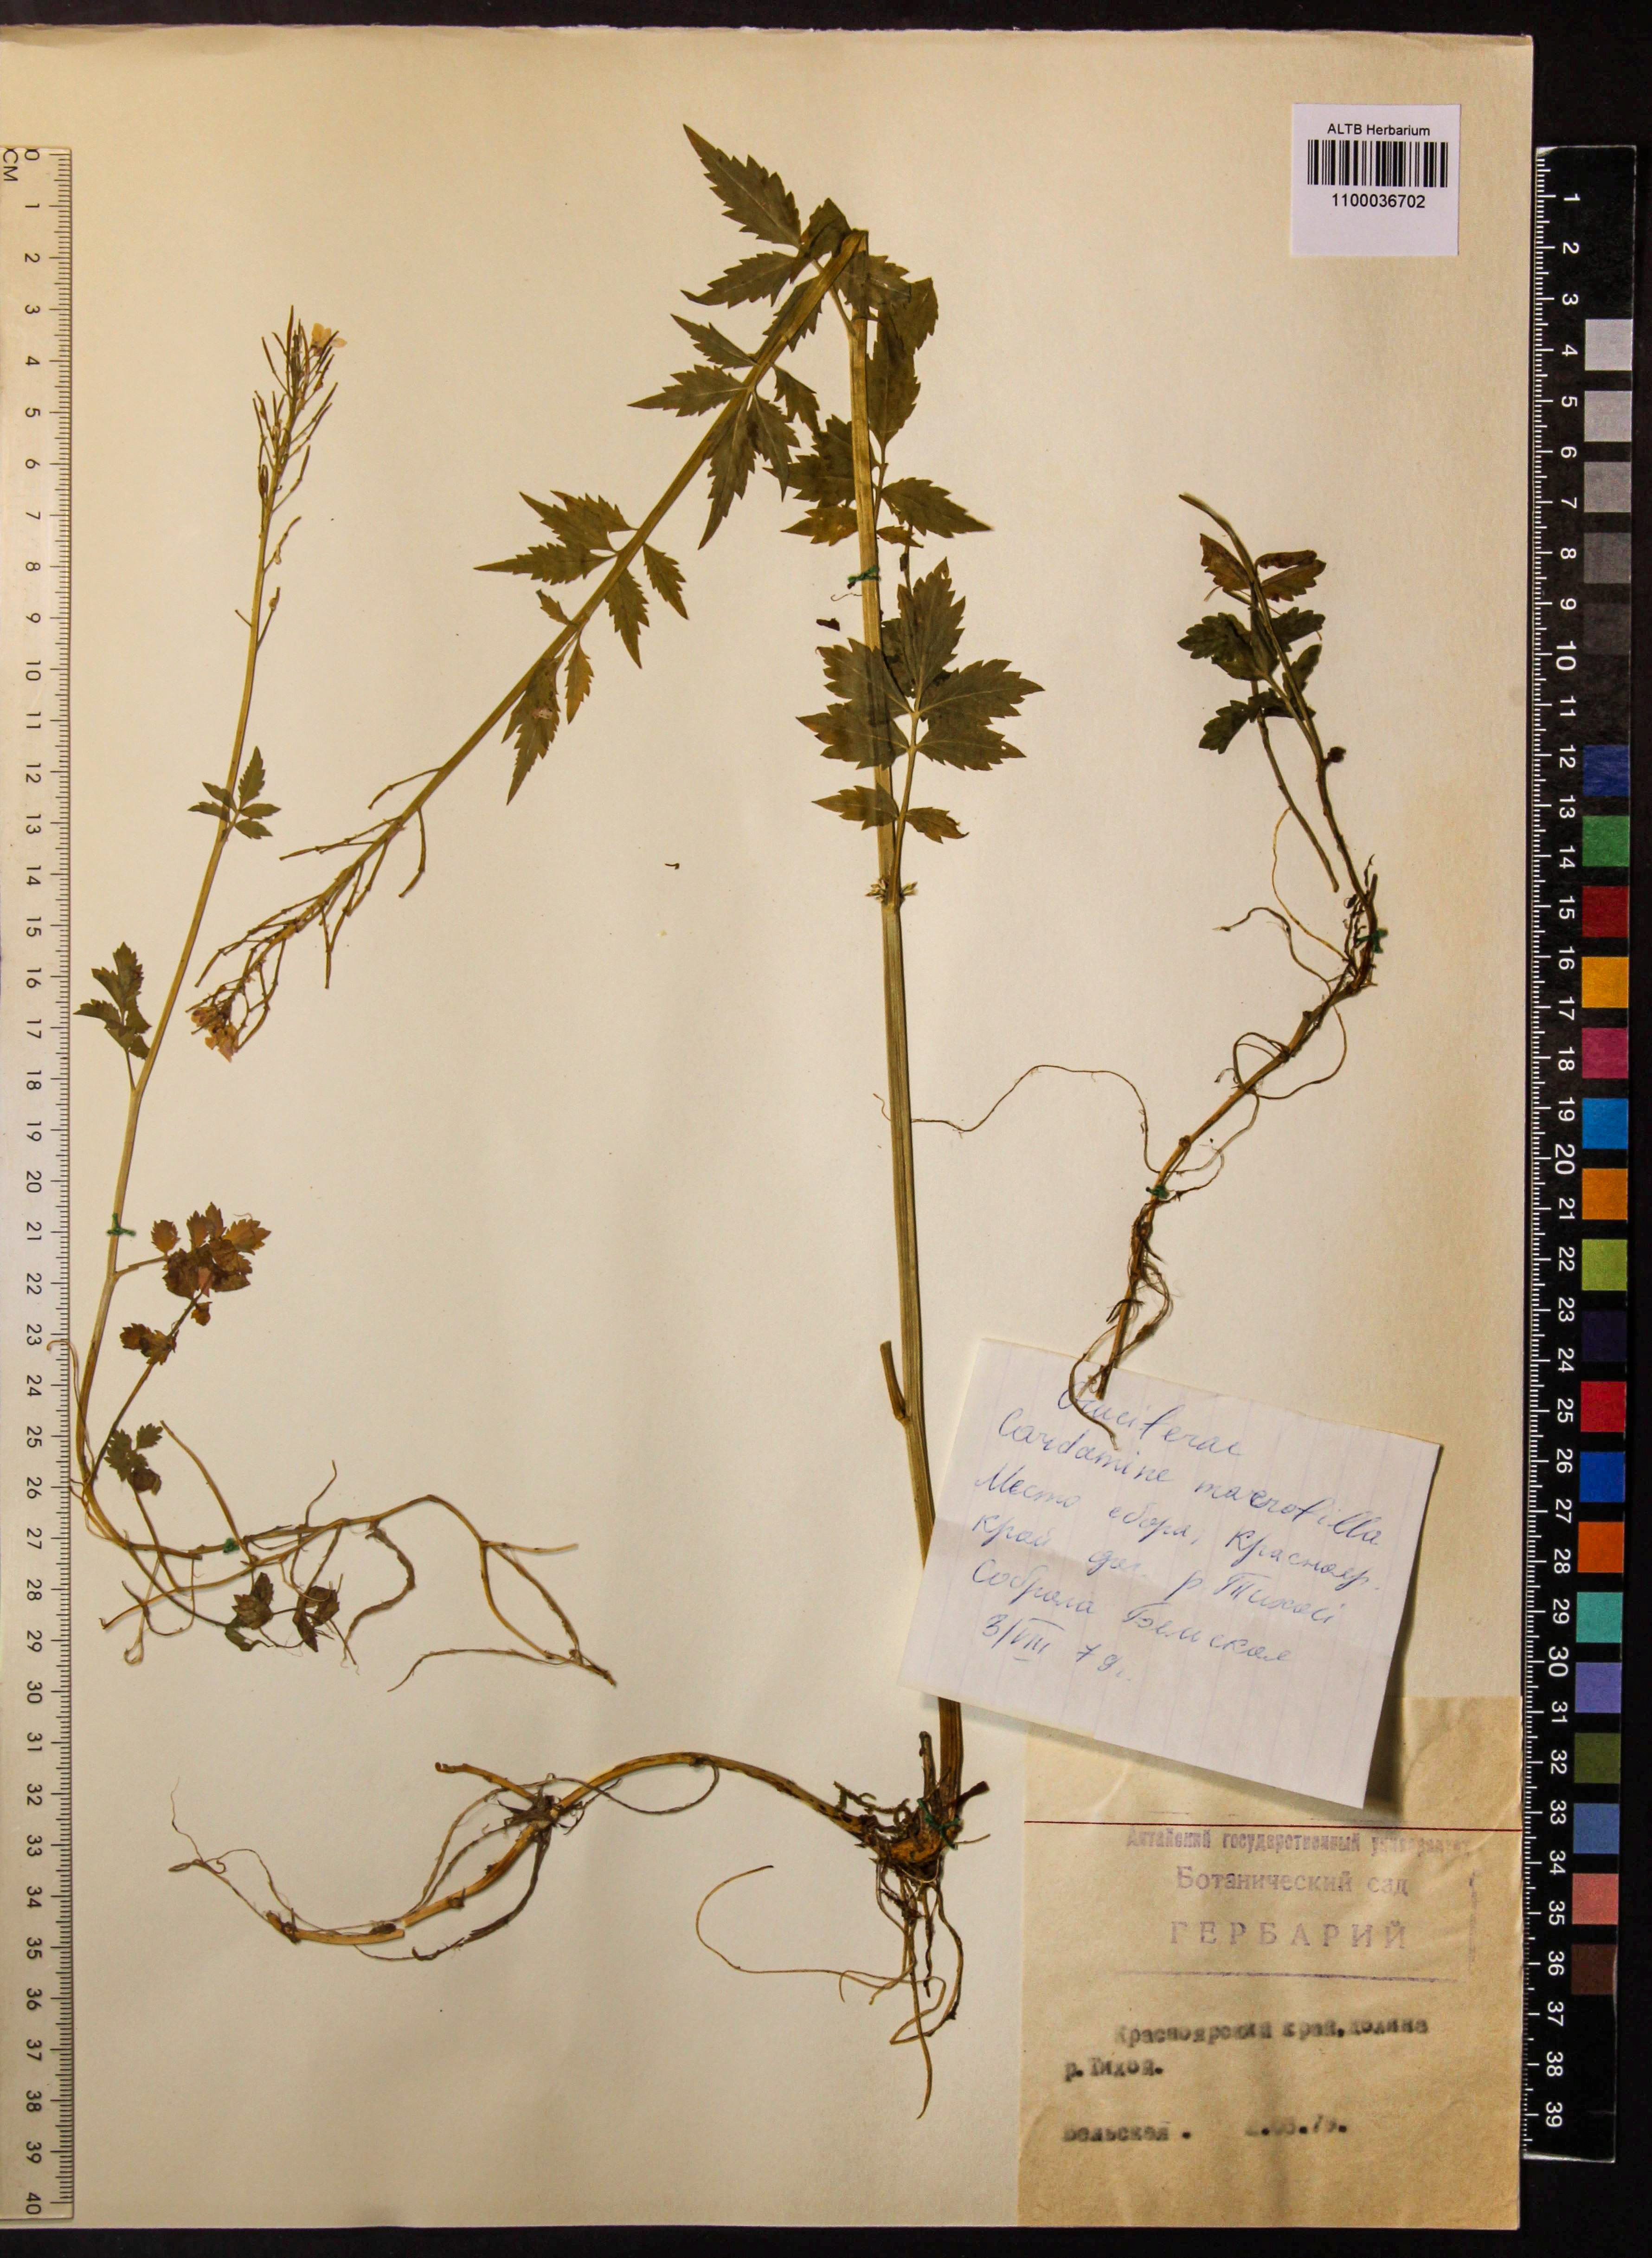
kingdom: Plantae
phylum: Tracheophyta
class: Magnoliopsida
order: Brassicales
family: Brassicaceae
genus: Cardamine
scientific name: Cardamine macrophylla
